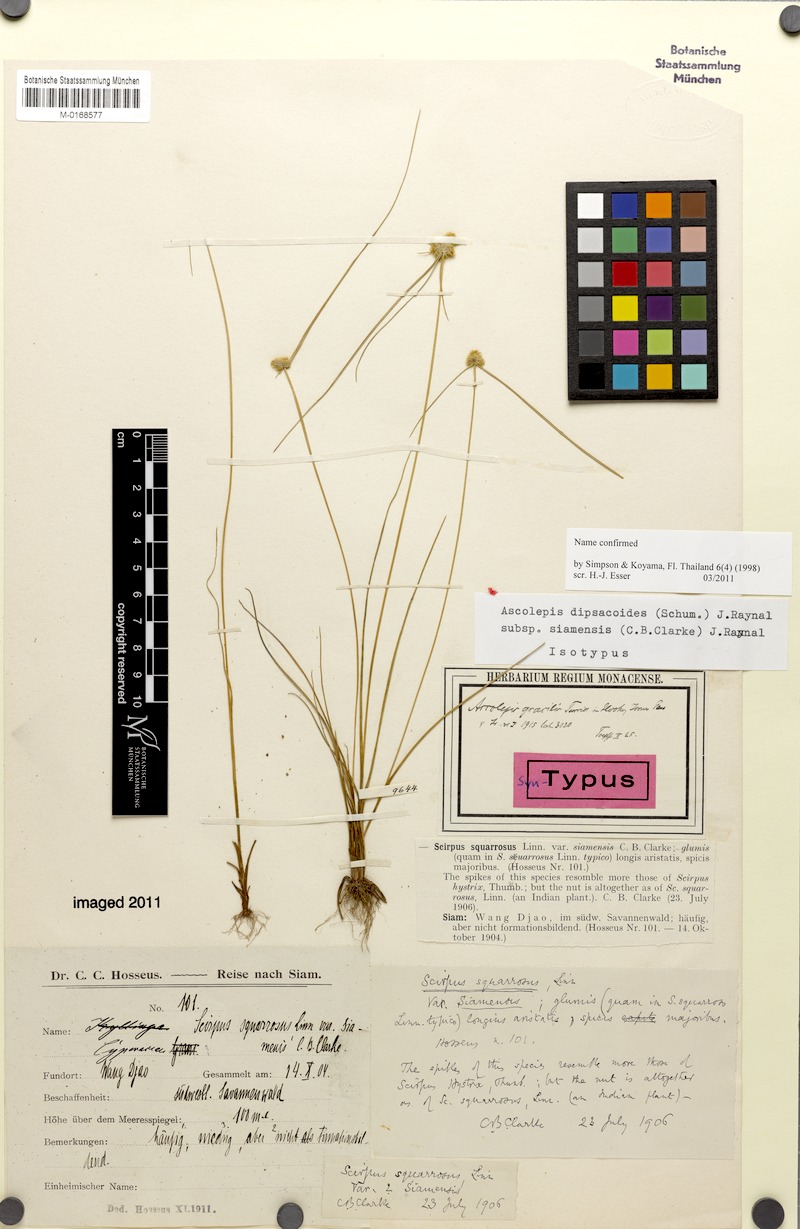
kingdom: Plantae
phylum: Tracheophyta
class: Liliopsida
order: Poales
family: Cyperaceae
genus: Cyperus
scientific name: Cyperus siamensis
